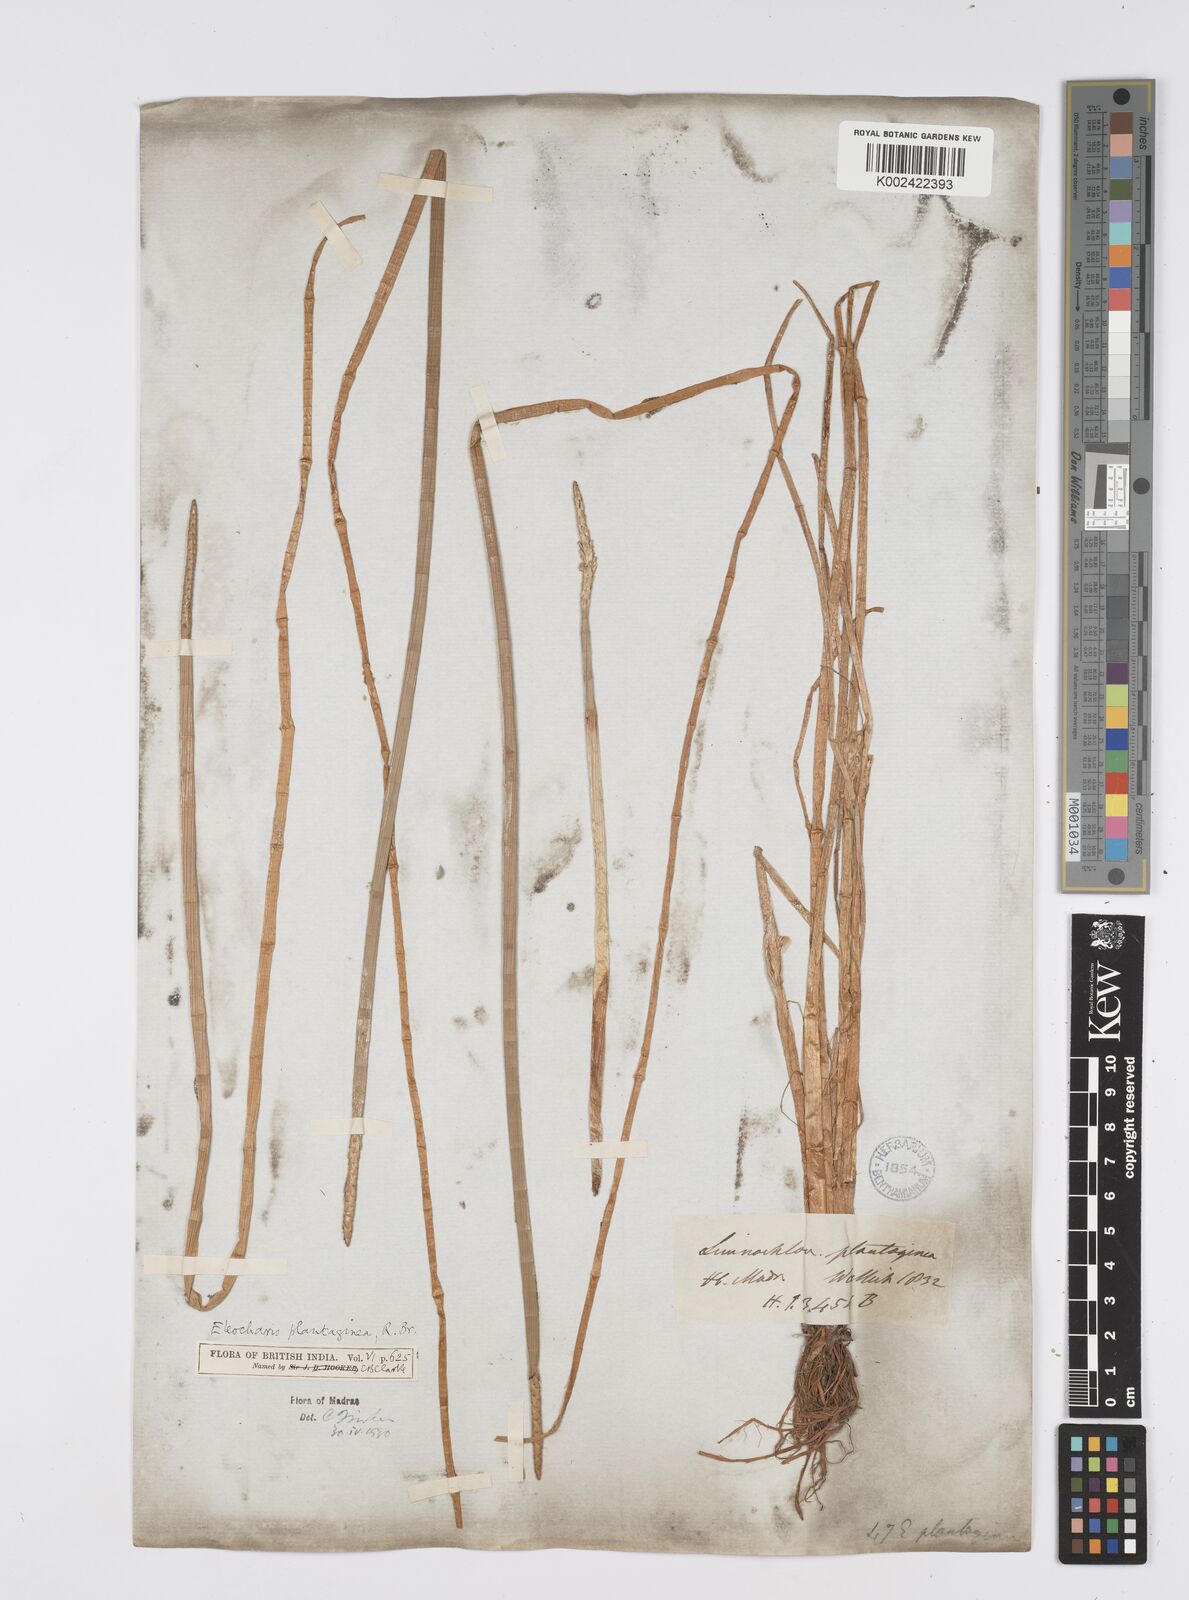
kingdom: Plantae
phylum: Tracheophyta
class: Liliopsida
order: Poales
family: Cyperaceae
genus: Eleocharis
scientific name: Eleocharis dulcis
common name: Chinese water chestnut
